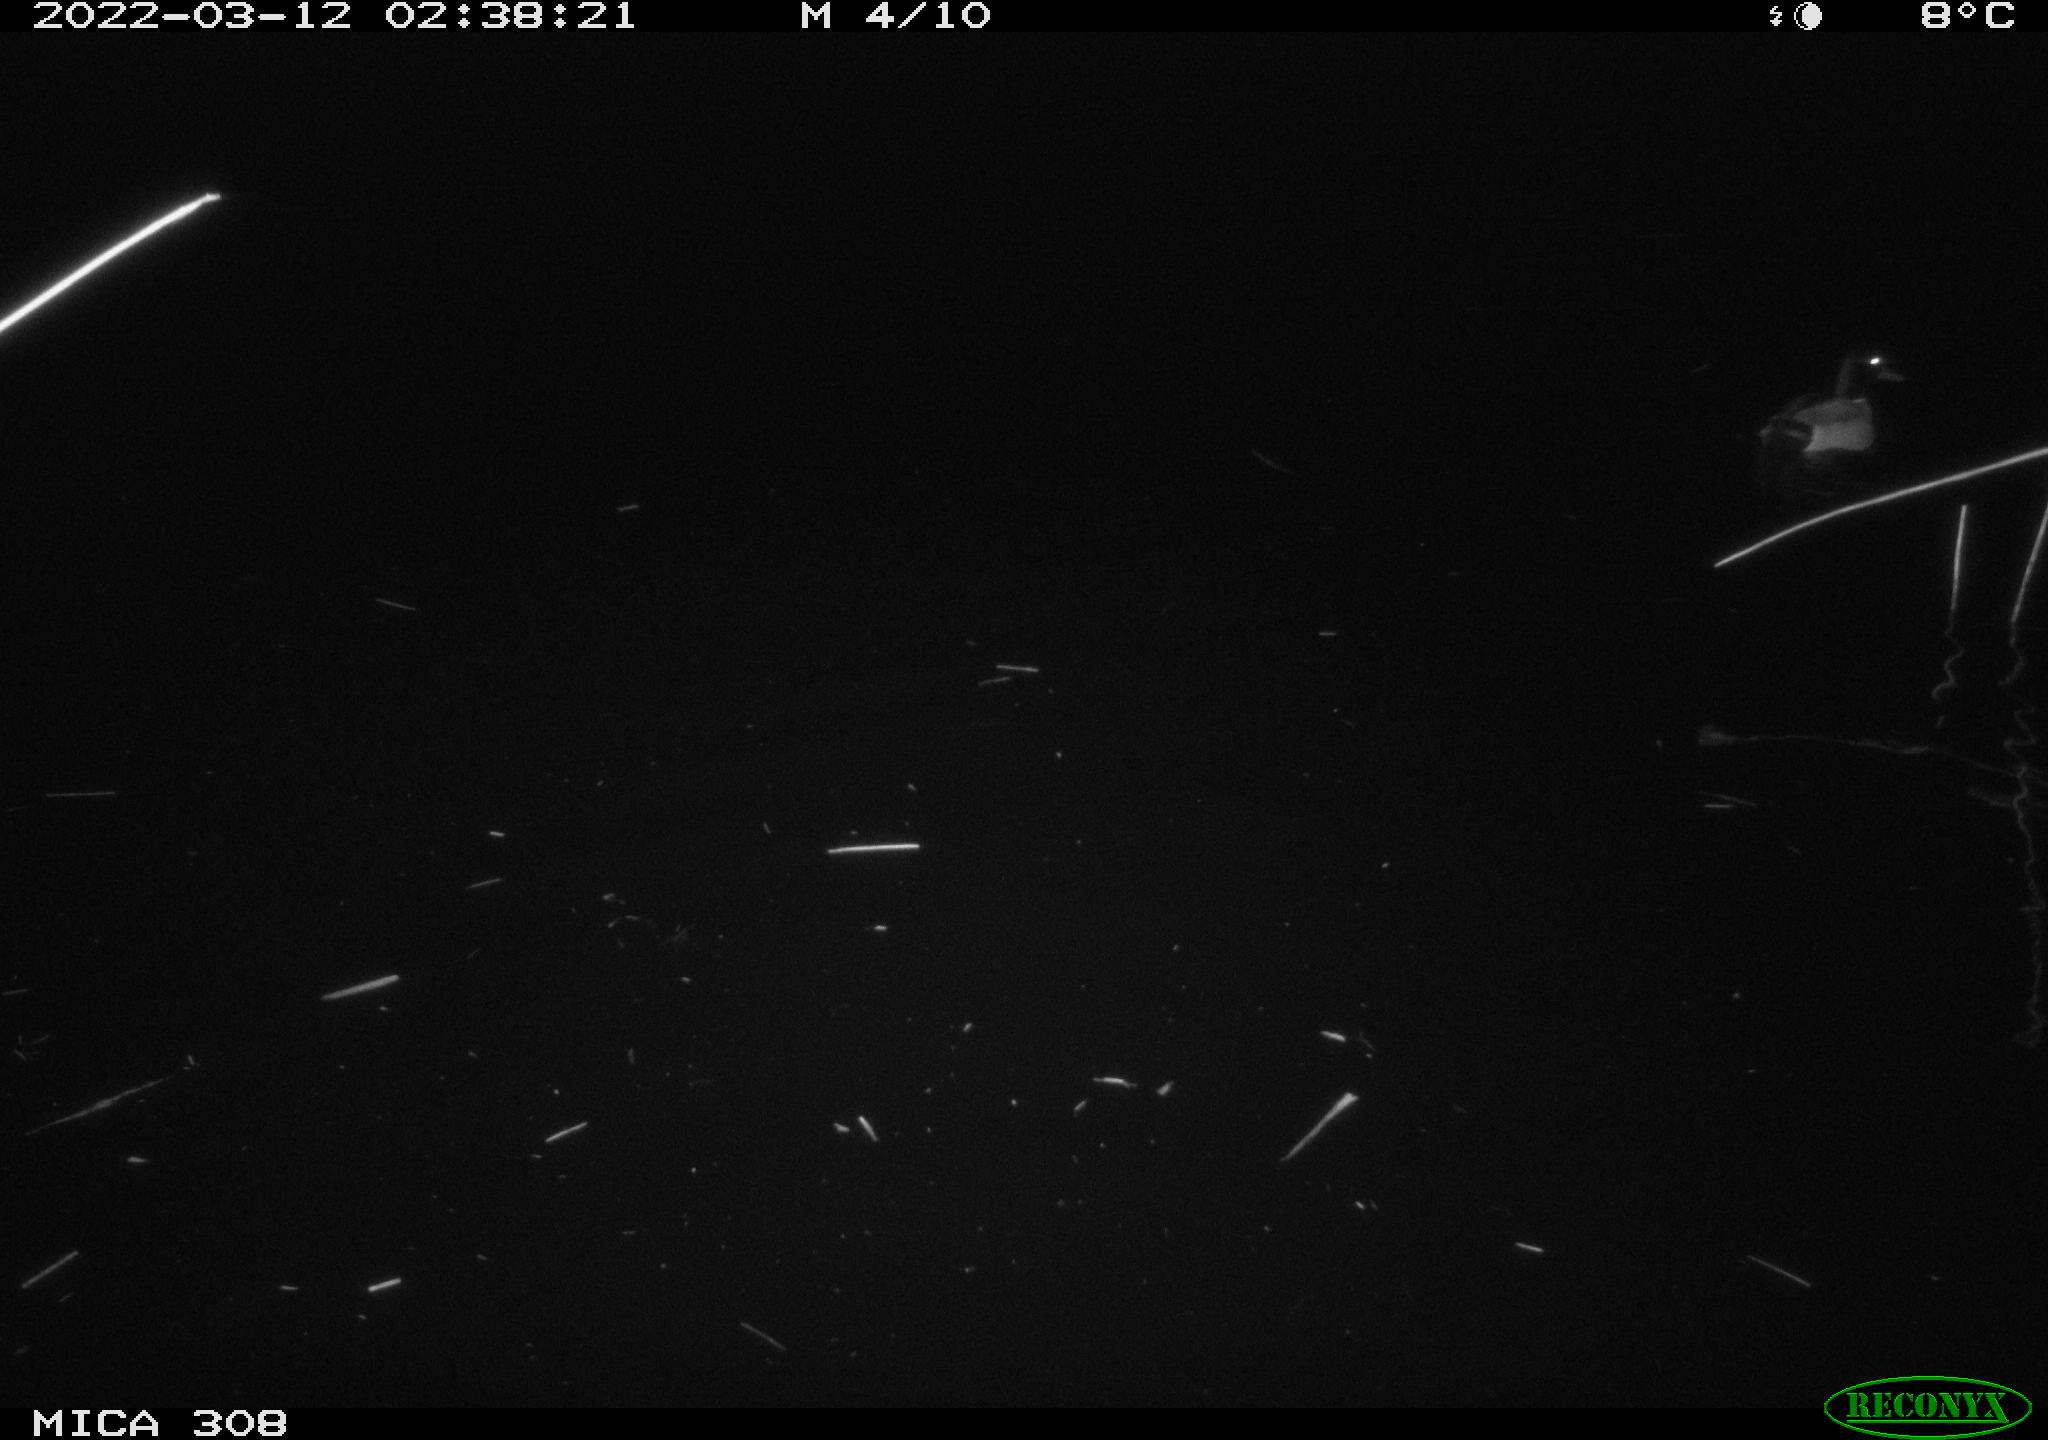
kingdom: Animalia
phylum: Chordata
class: Aves
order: Anseriformes
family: Anatidae
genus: Anas
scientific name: Anas platyrhynchos
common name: Mallard
